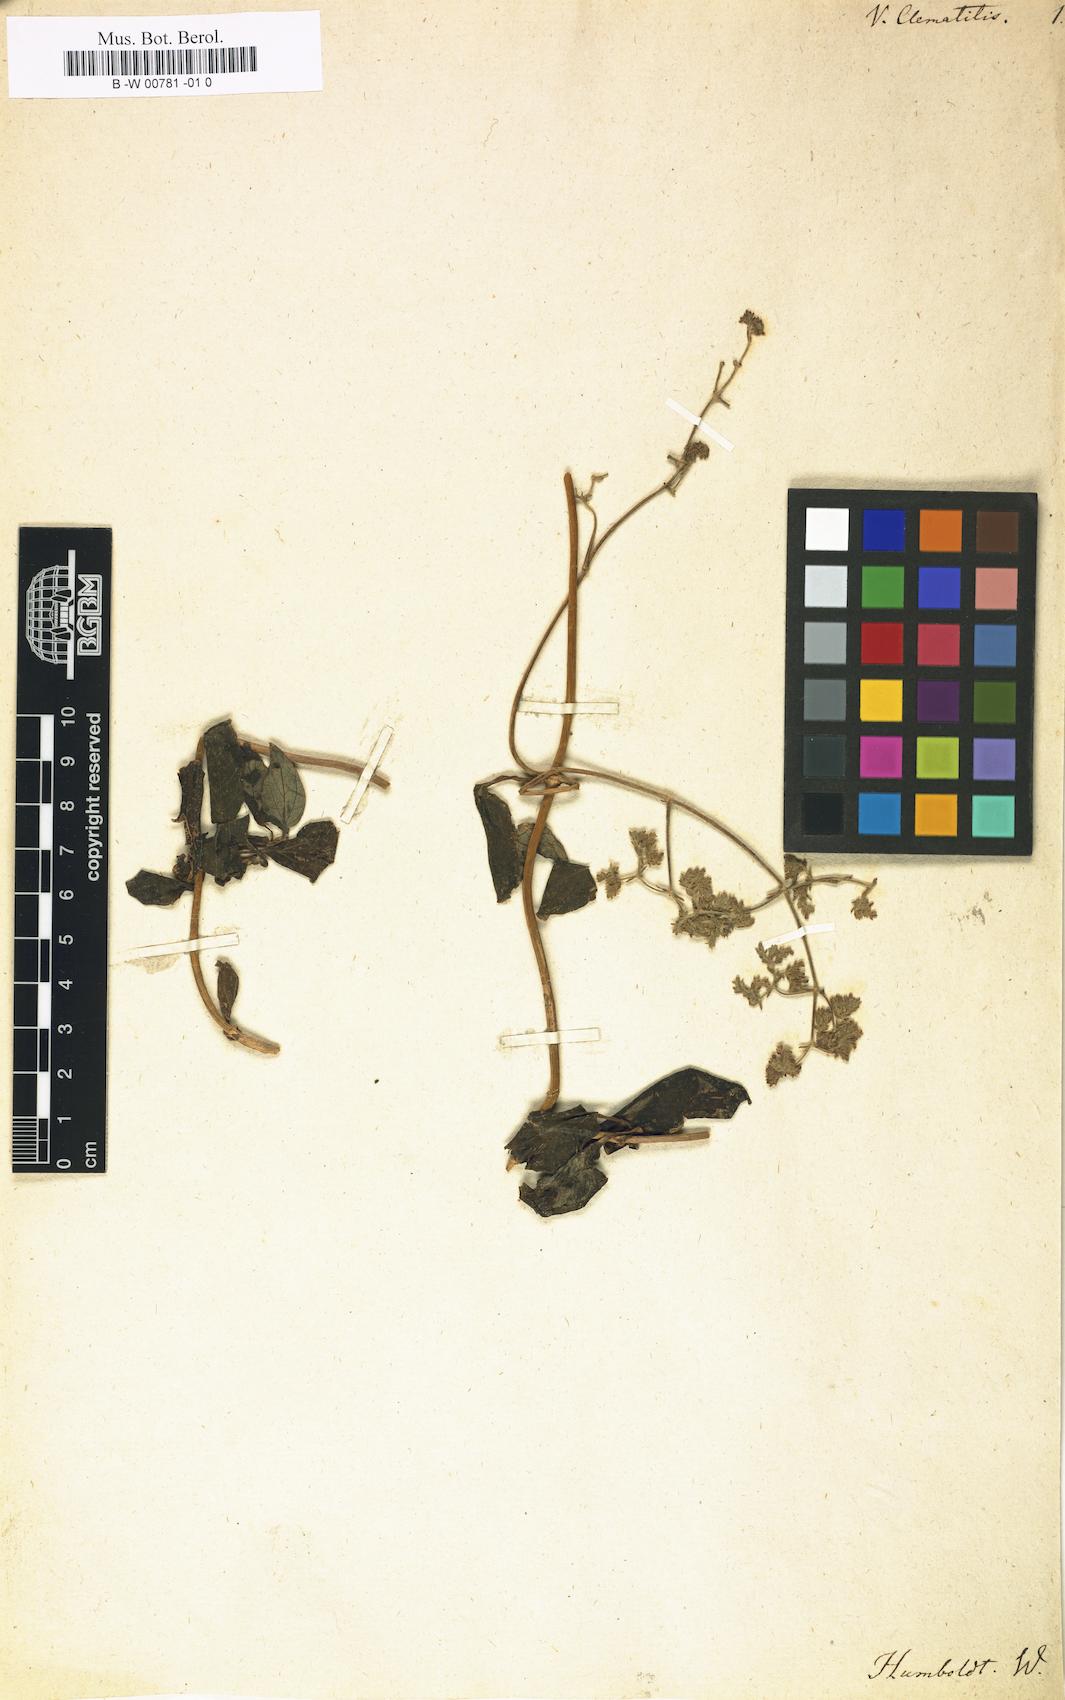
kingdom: Plantae
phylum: Tracheophyta
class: Magnoliopsida
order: Dipsacales
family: Caprifoliaceae
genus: Valeriana
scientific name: Valeriana clematitis
